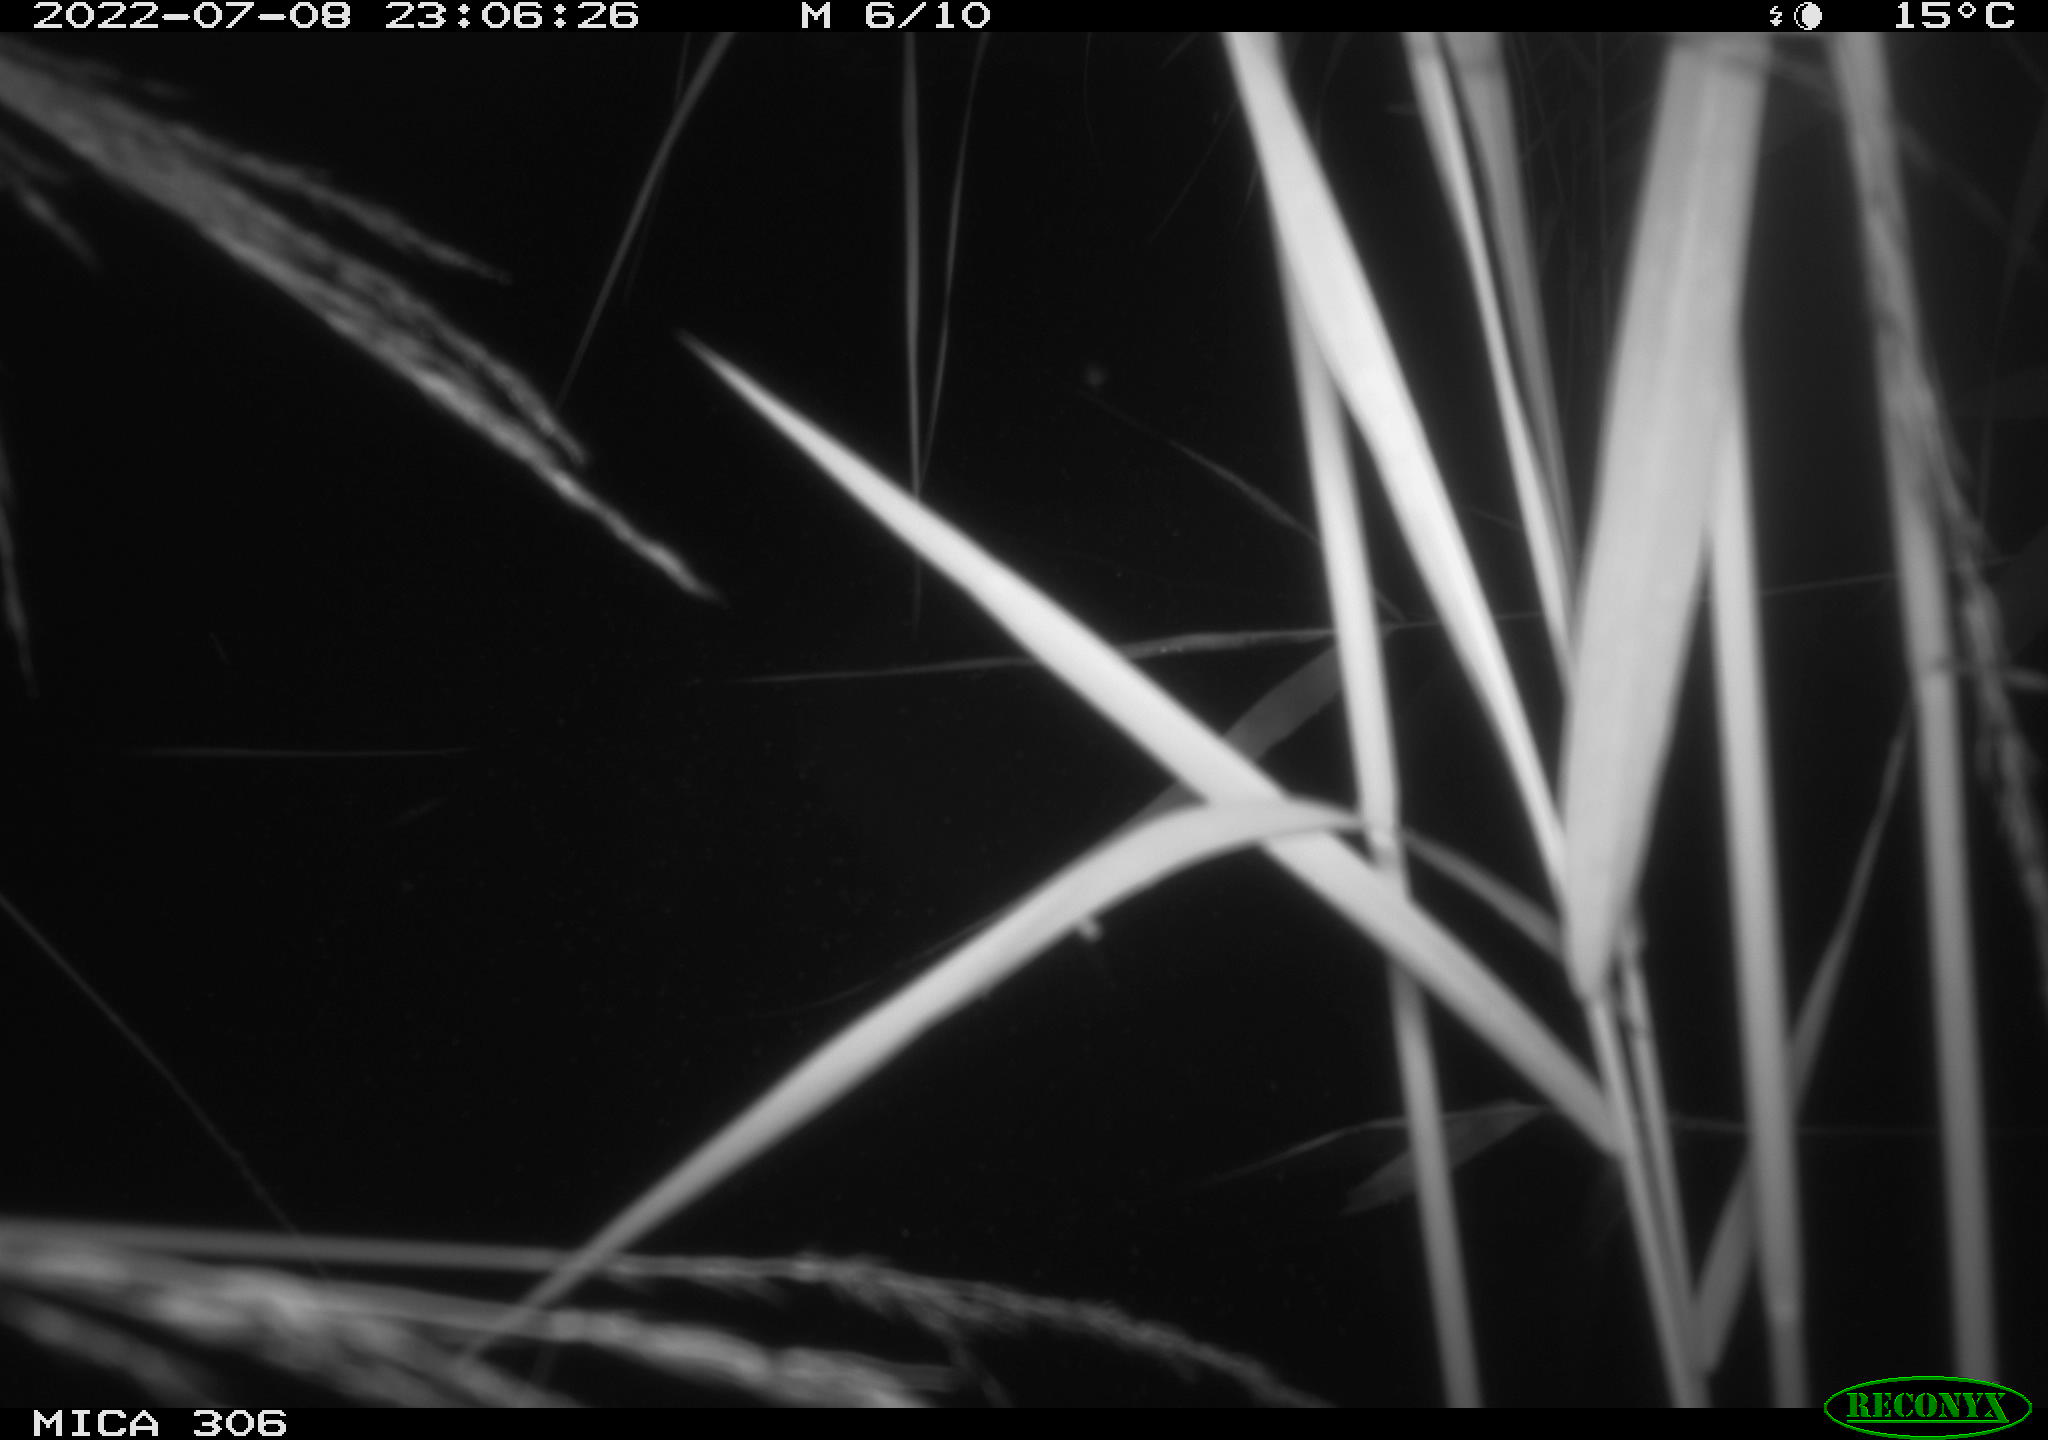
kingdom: Animalia
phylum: Chordata
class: Mammalia
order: Rodentia
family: Cricetidae
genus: Ondatra
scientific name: Ondatra zibethicus
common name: Muskrat
